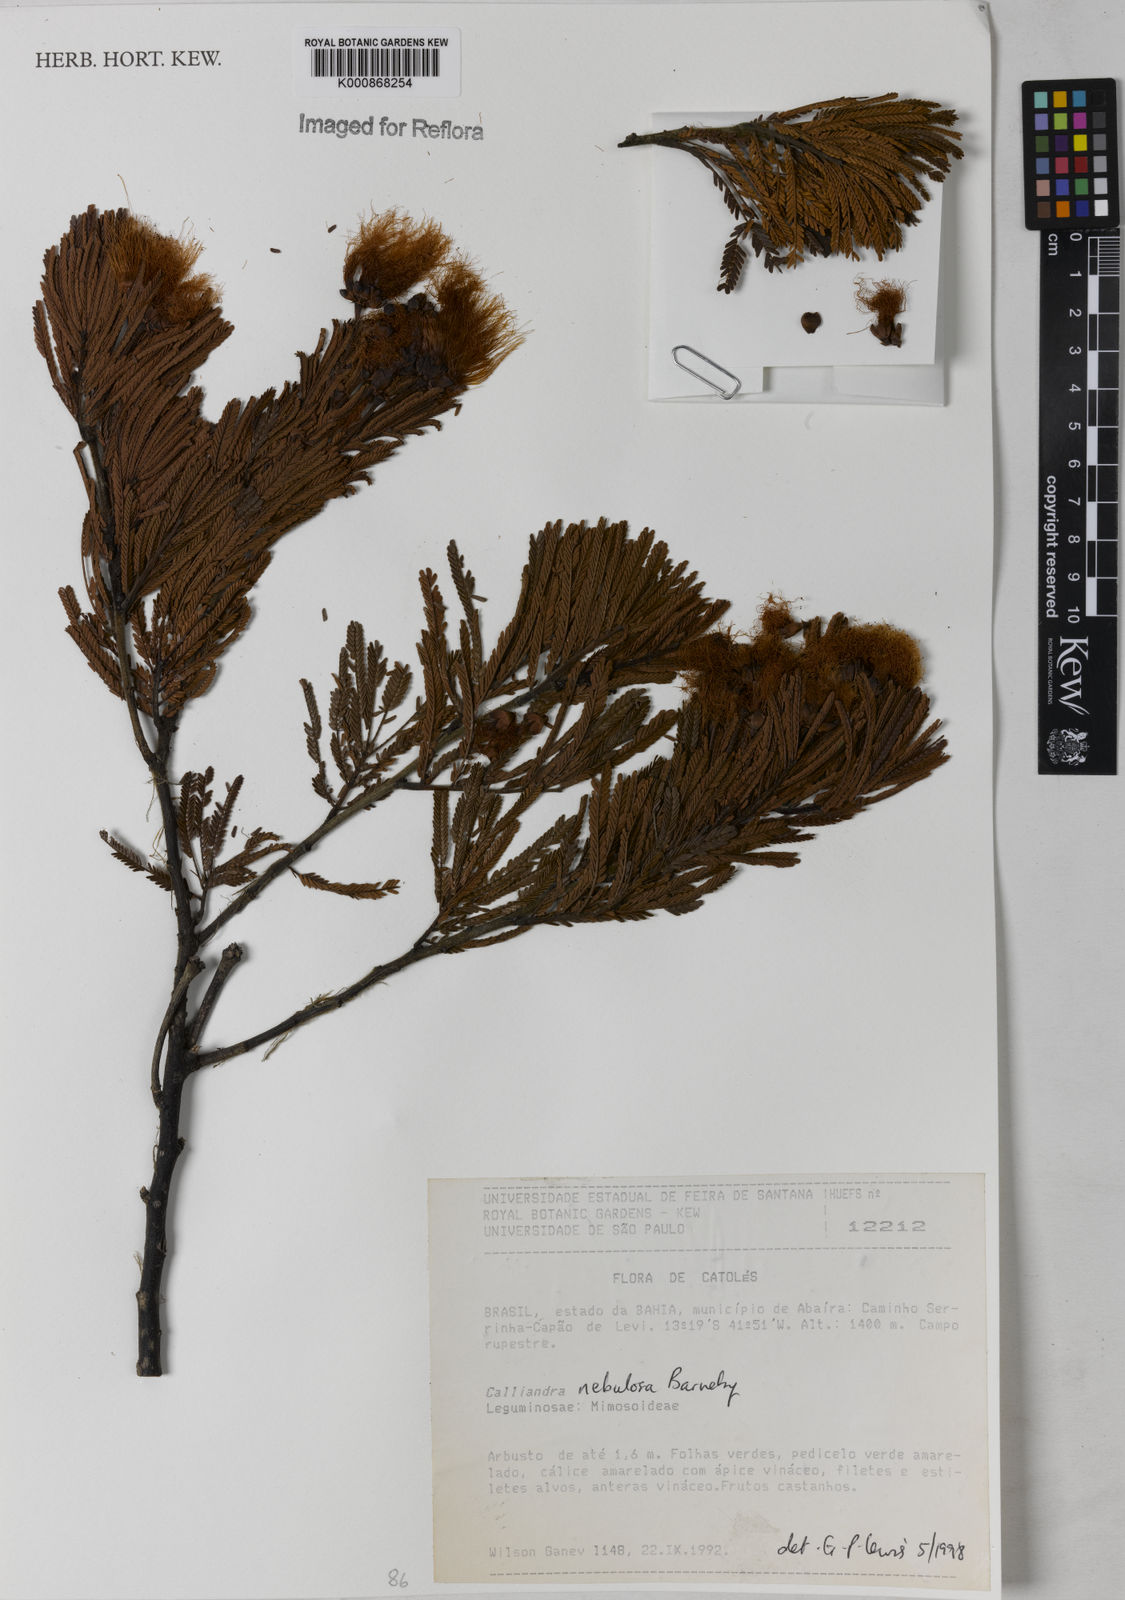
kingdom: Plantae
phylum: Tracheophyta
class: Magnoliopsida
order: Fabales
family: Fabaceae
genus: Calliandra
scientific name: Calliandra nebulosa
